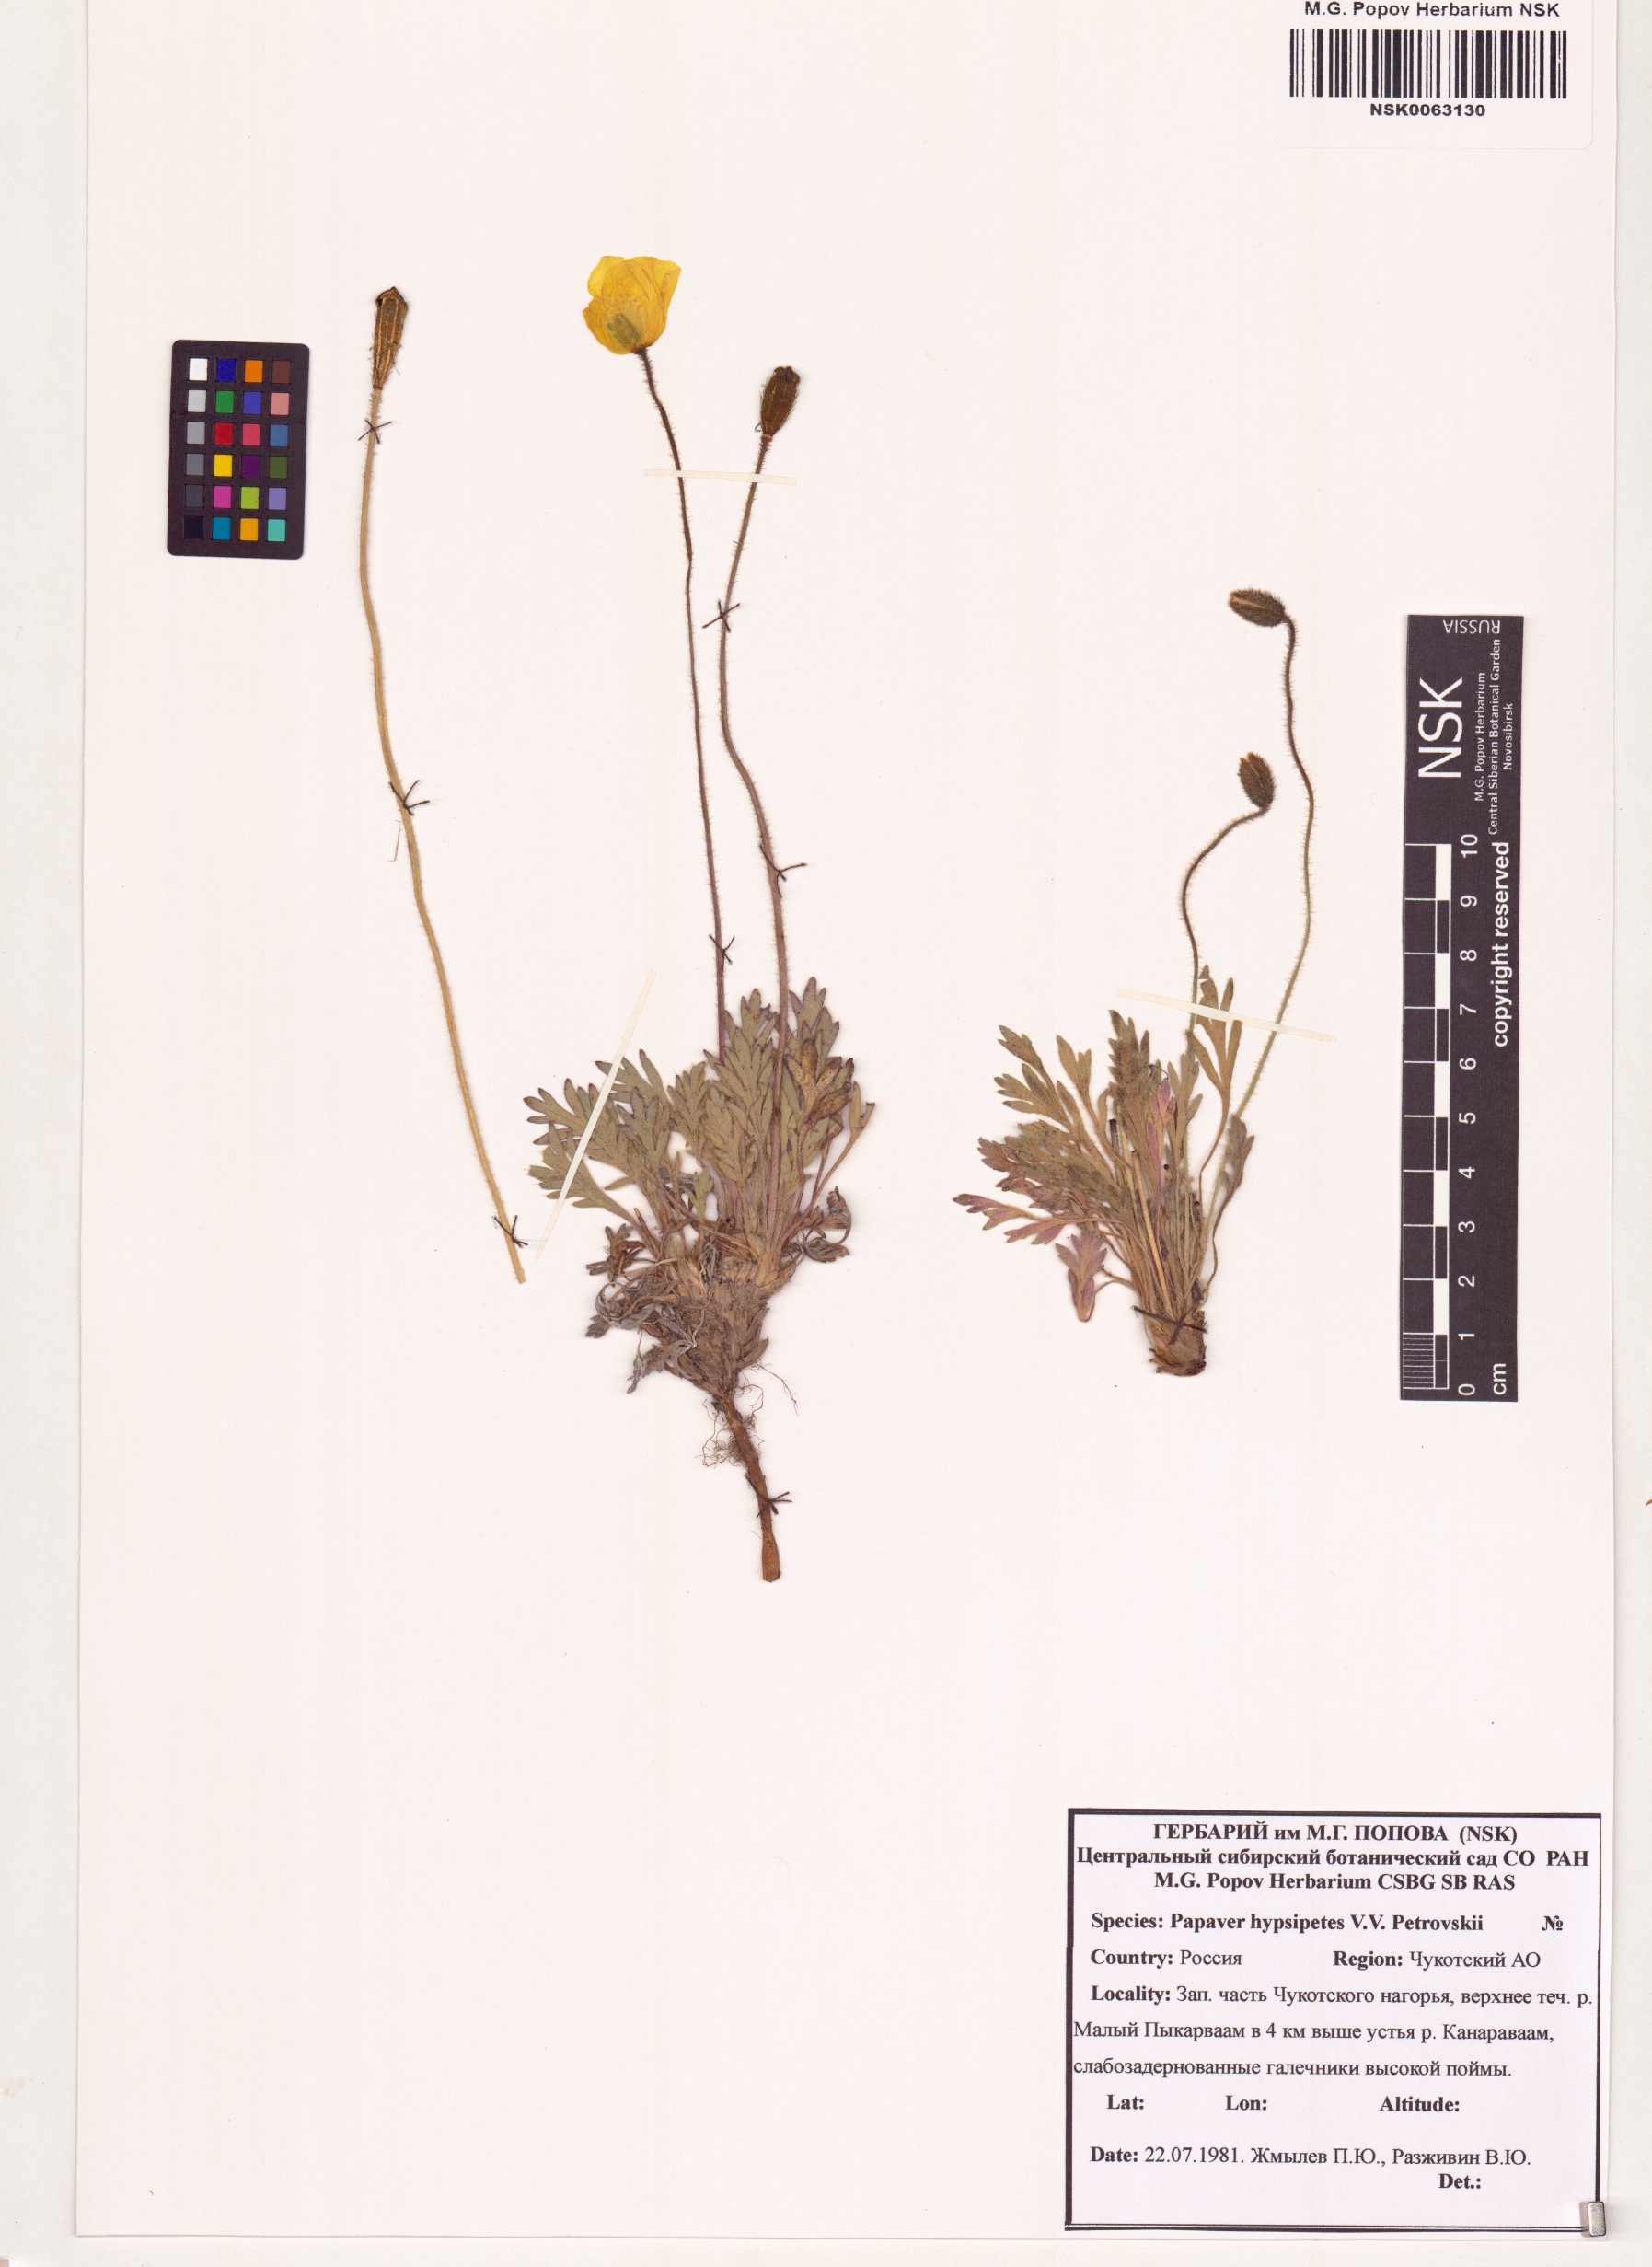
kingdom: Plantae
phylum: Tracheophyta
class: Magnoliopsida
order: Ranunculales
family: Papaveraceae
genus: Papaver
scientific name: Papaver hypsipetes
